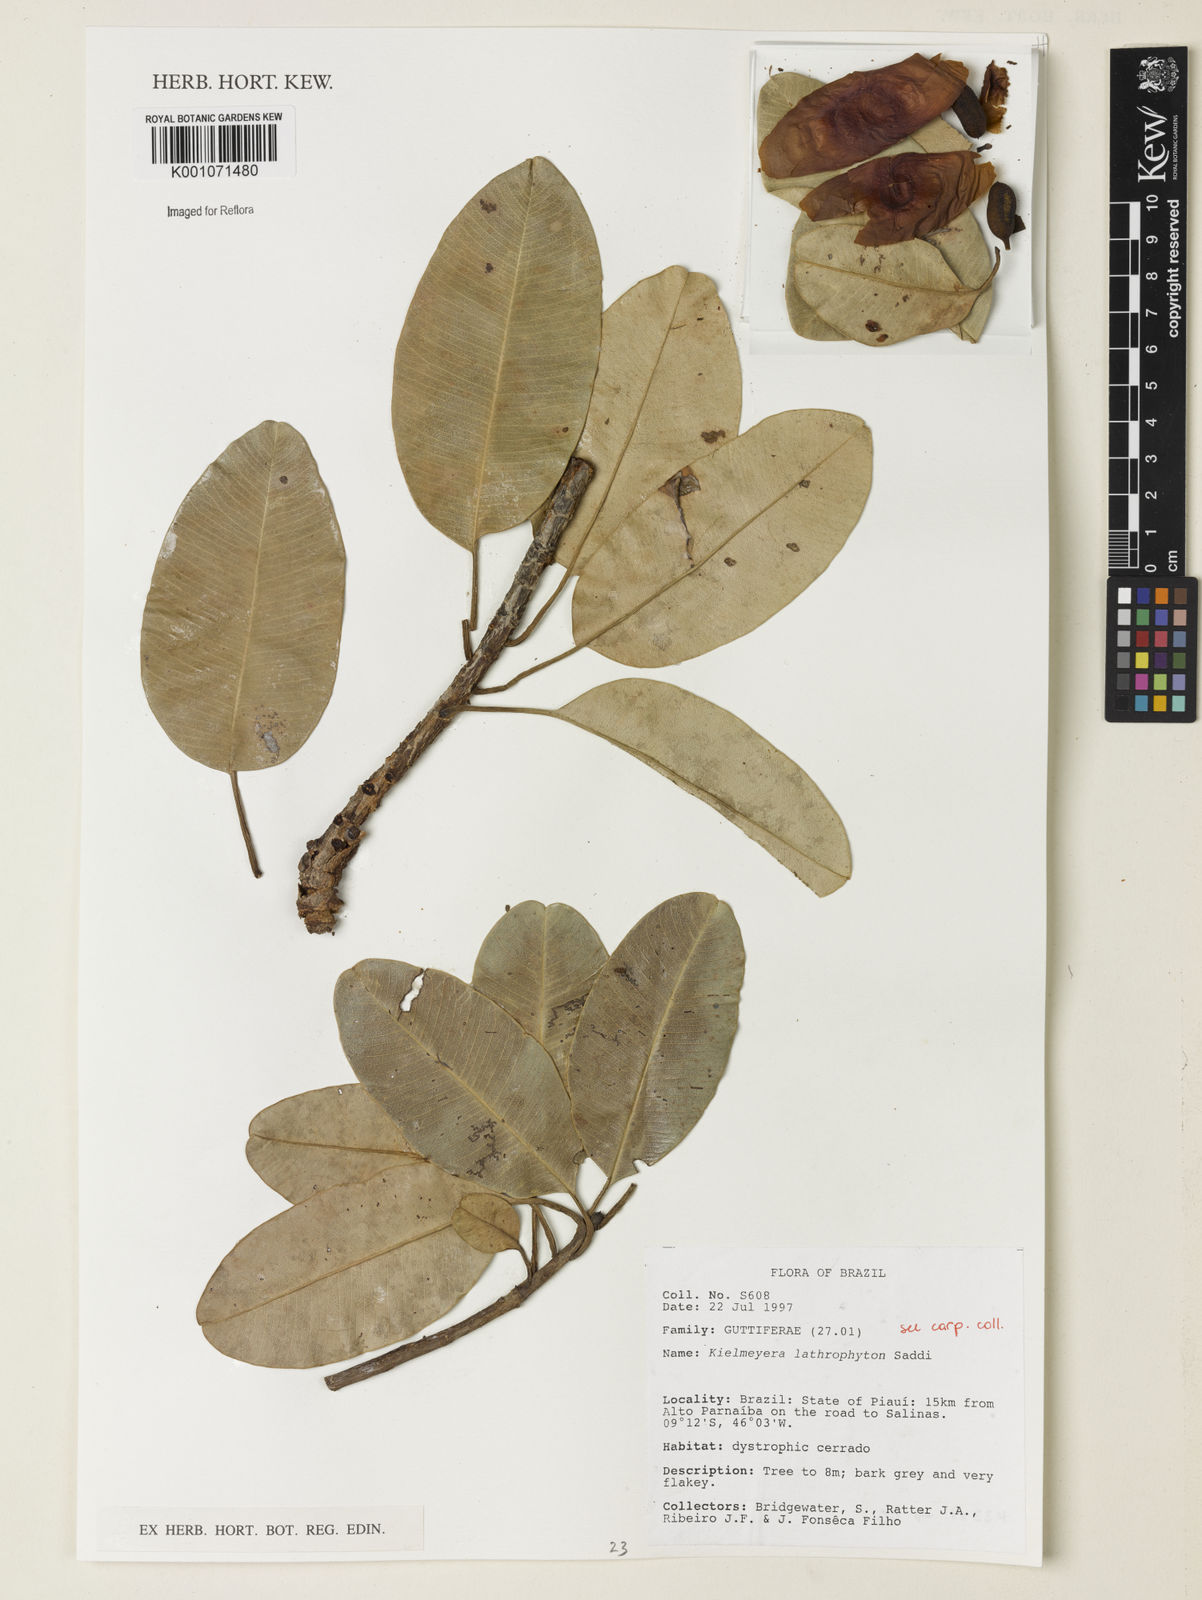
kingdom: Plantae
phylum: Tracheophyta
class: Magnoliopsida
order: Malpighiales
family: Calophyllaceae
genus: Kielmeyera
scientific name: Kielmeyera lathrophyton
